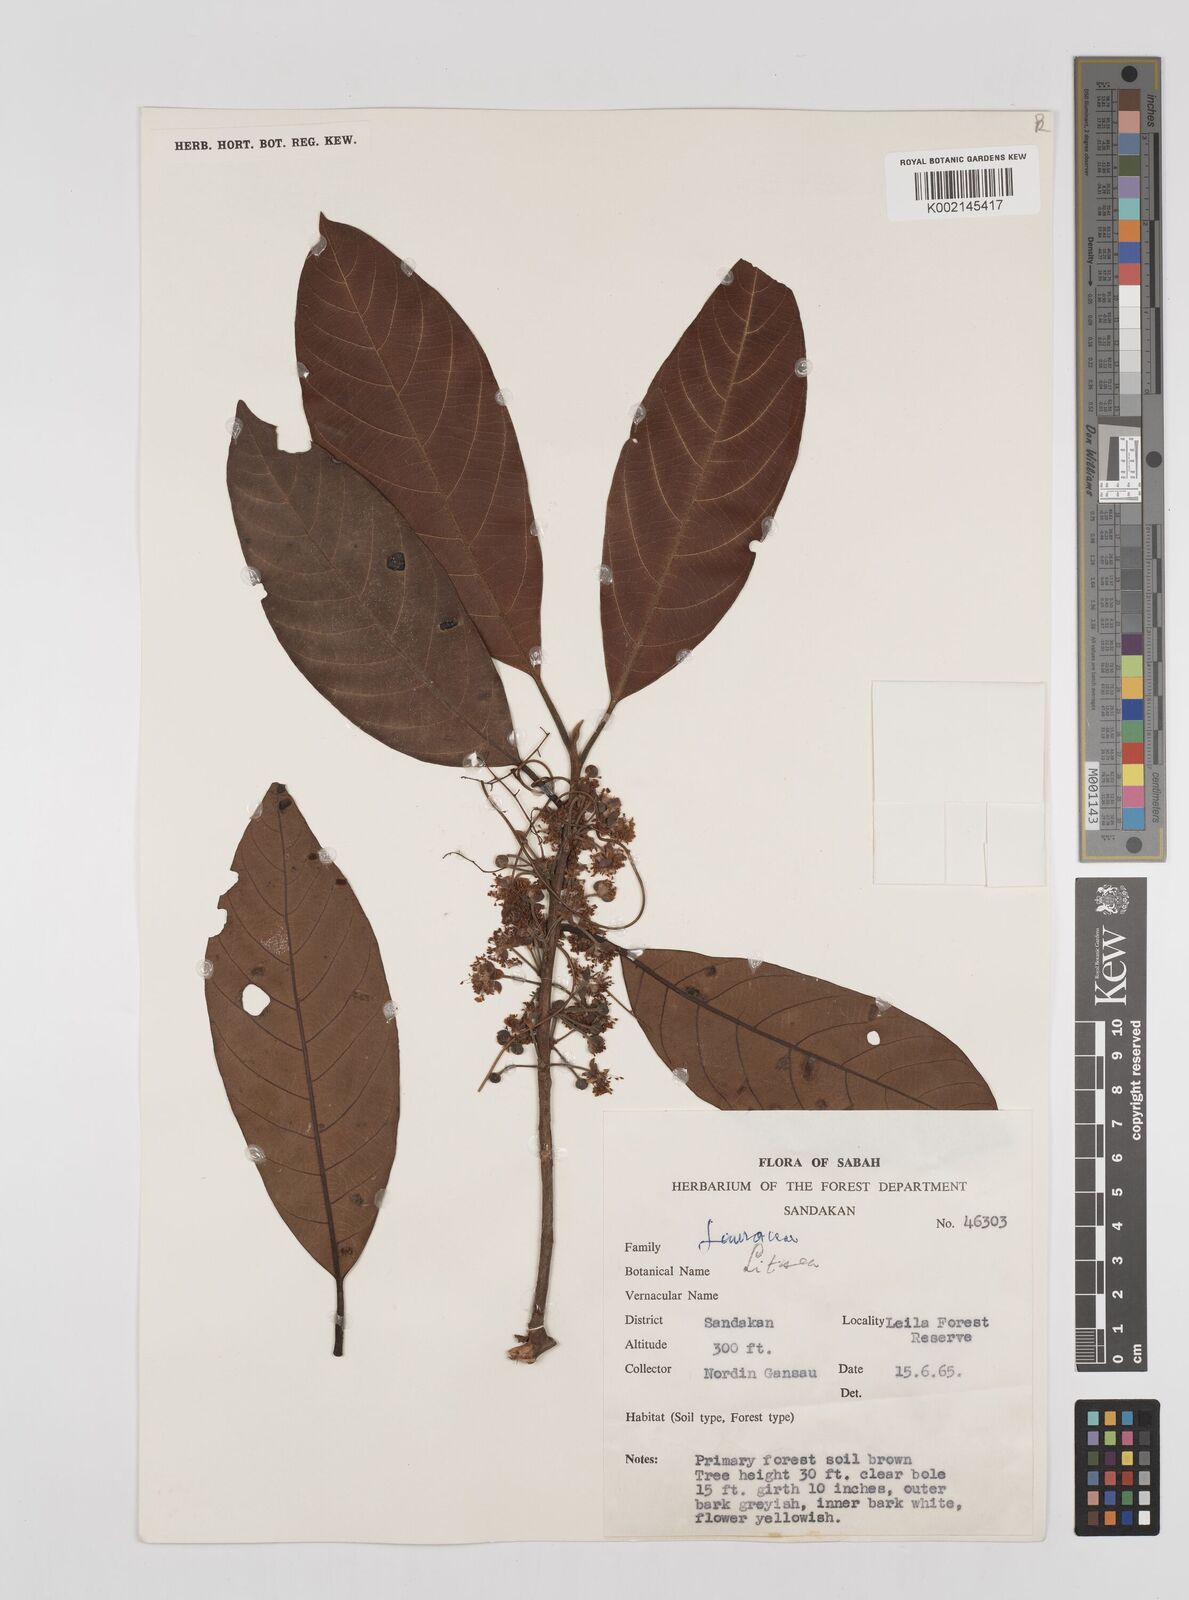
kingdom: Plantae
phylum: Tracheophyta
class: Magnoliopsida
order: Laurales
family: Lauraceae
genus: Litsea
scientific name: Litsea
